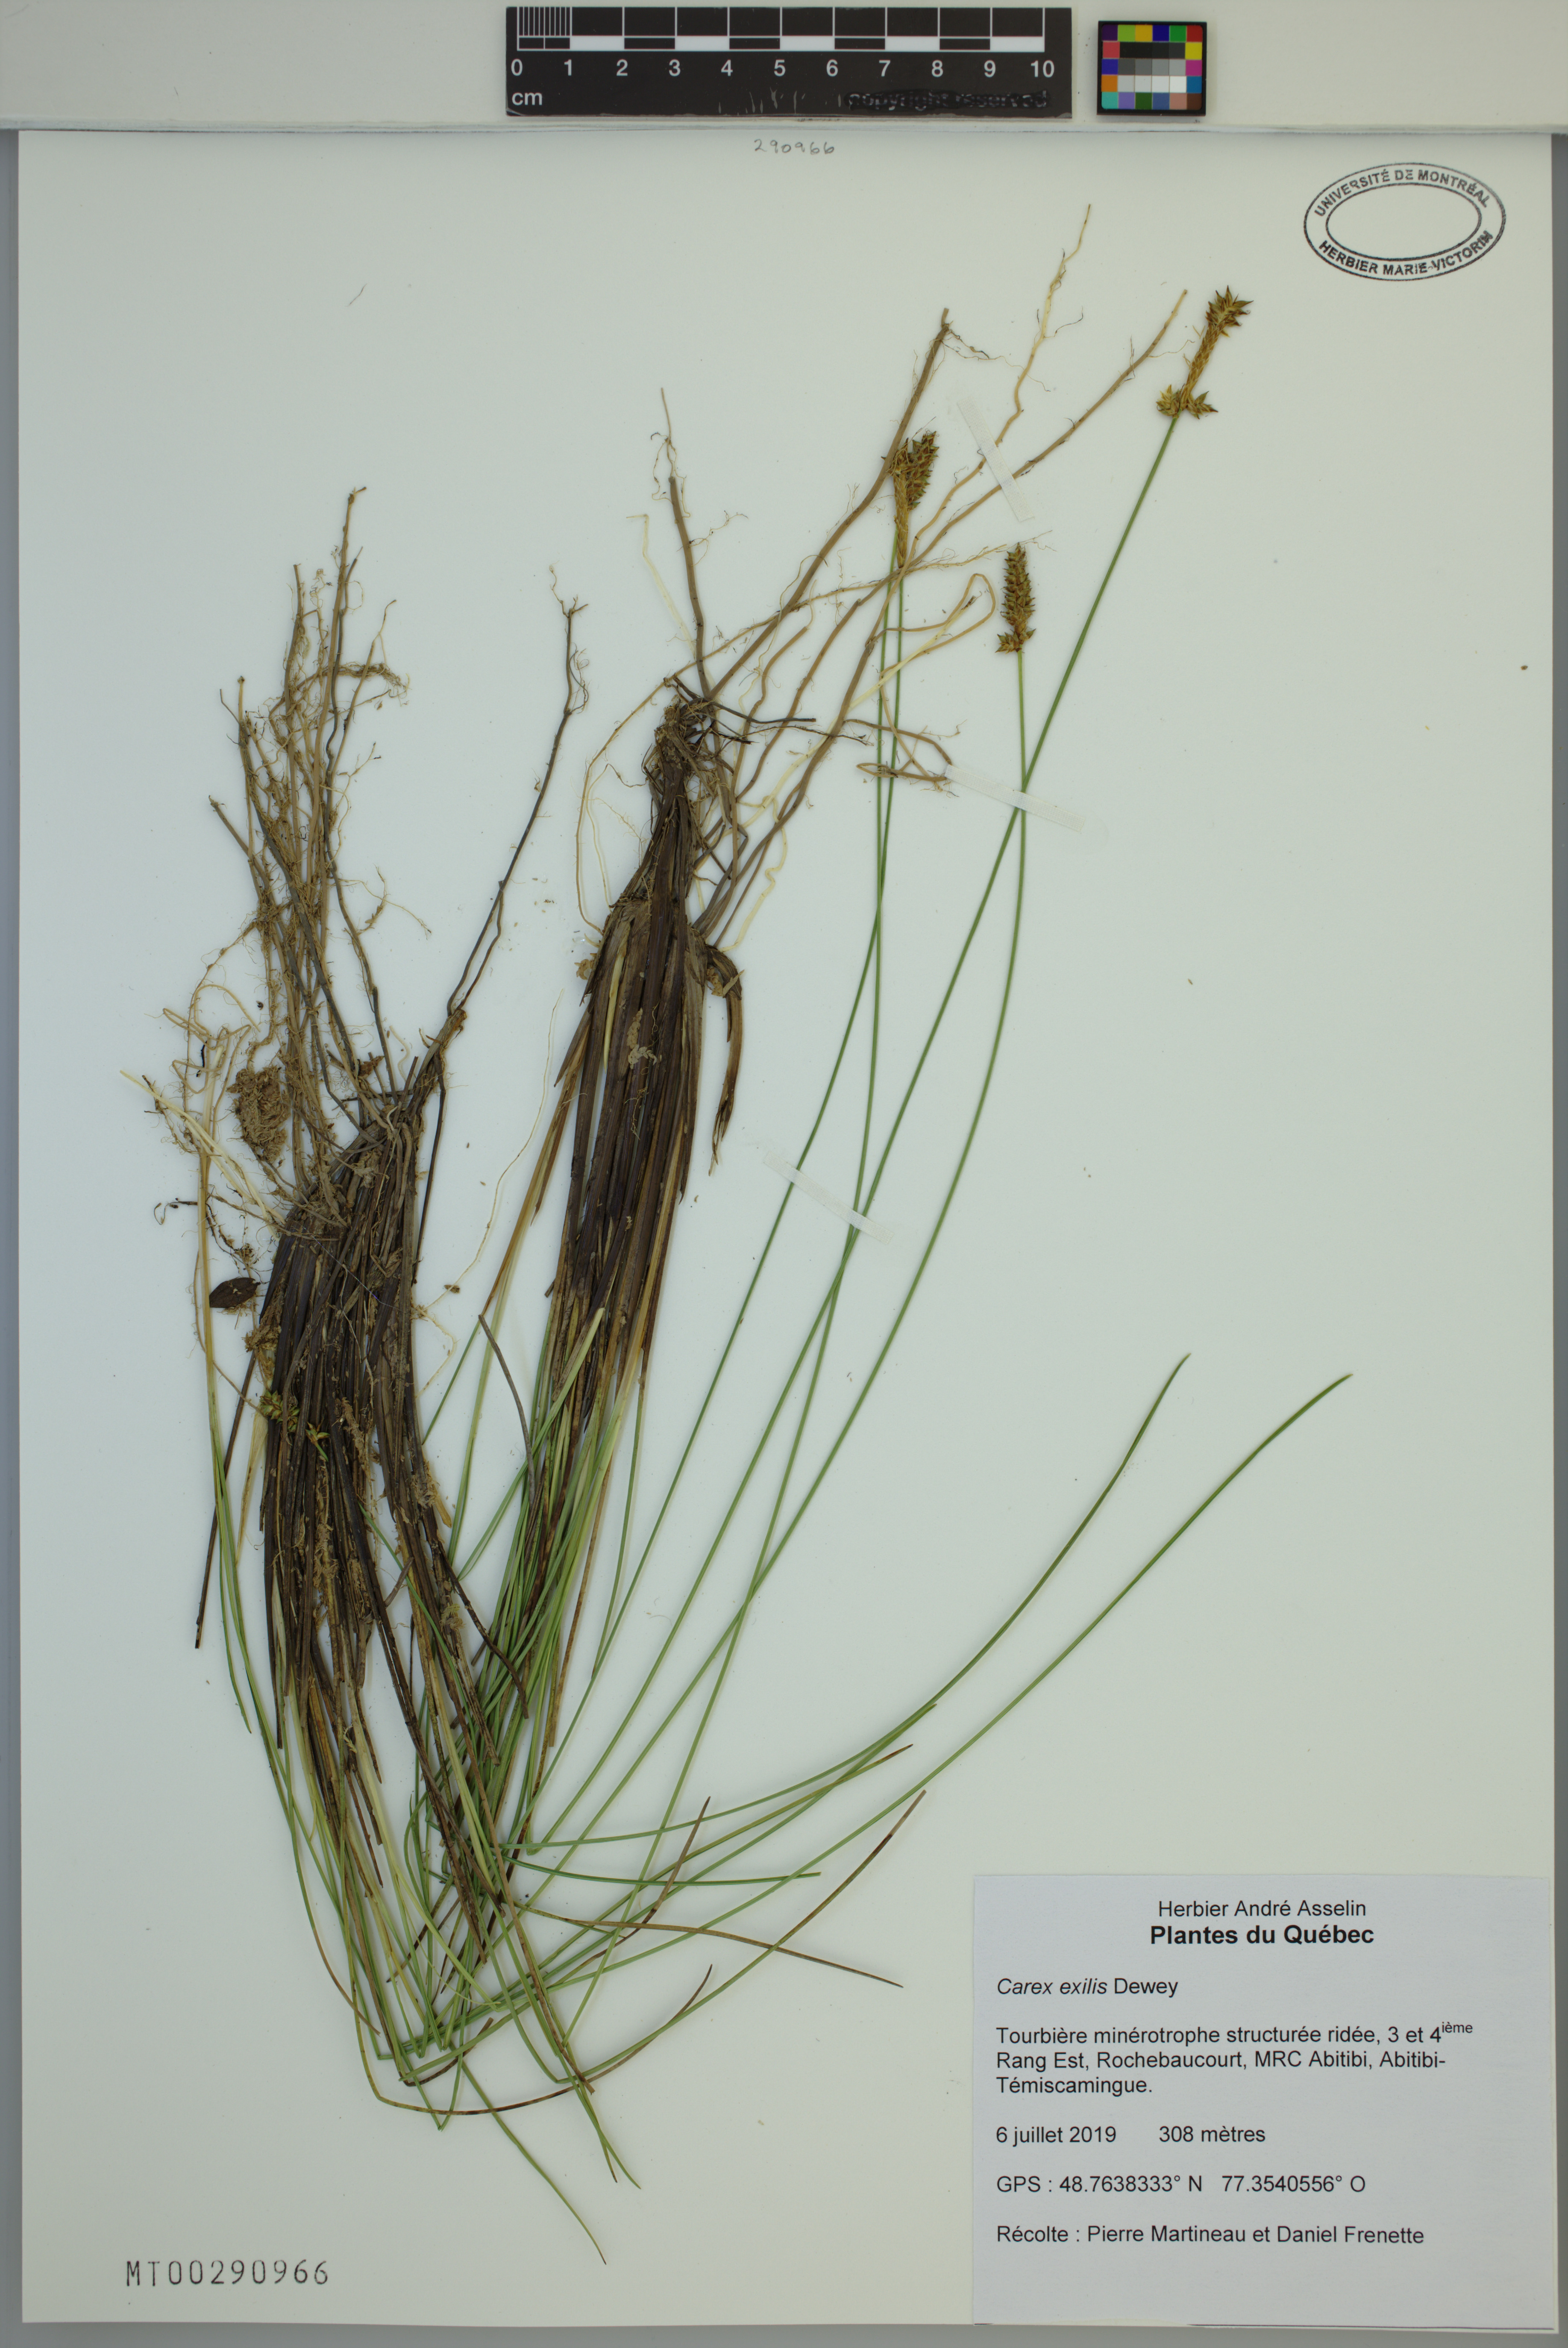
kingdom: Plantae
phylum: Tracheophyta
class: Liliopsida
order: Poales
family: Cyperaceae
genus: Carex
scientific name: Carex exilis
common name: Coastal sedge
